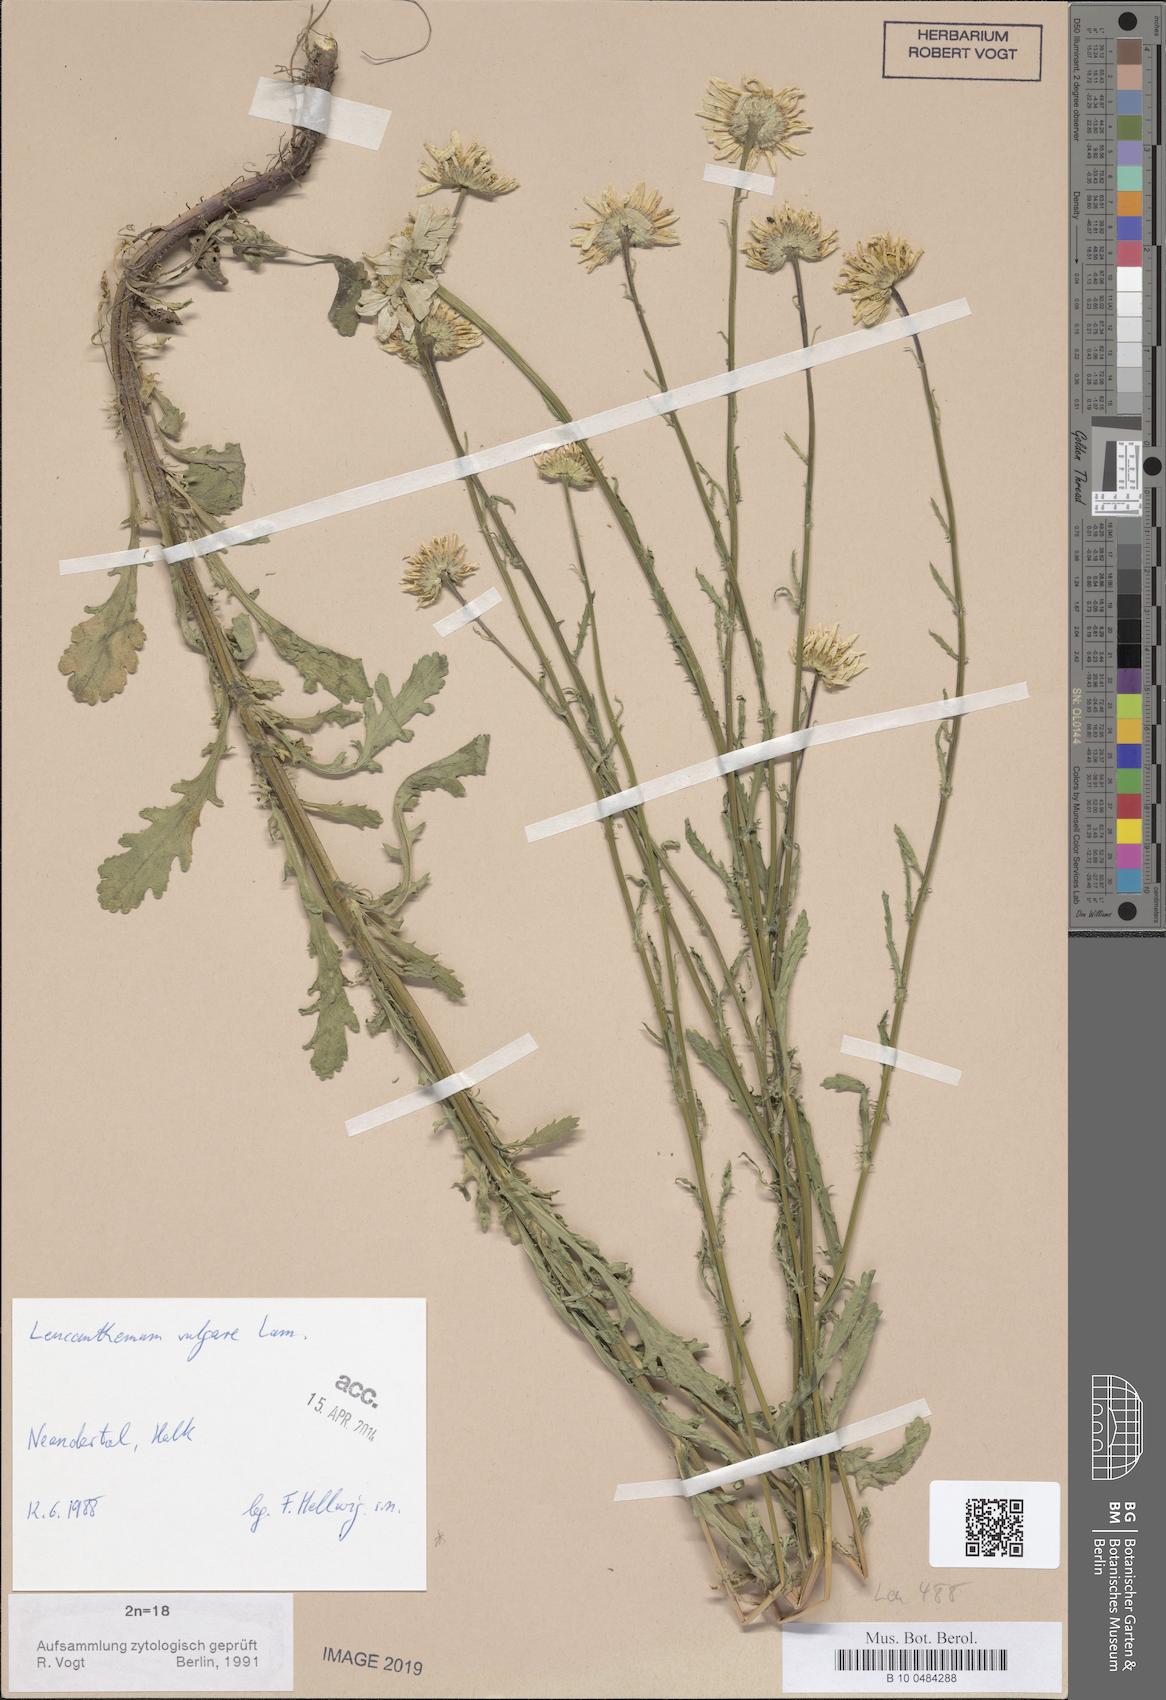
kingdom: Plantae
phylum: Tracheophyta
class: Magnoliopsida
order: Asterales
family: Asteraceae
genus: Leucanthemum
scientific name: Leucanthemum vulgare
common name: Oxeye daisy
